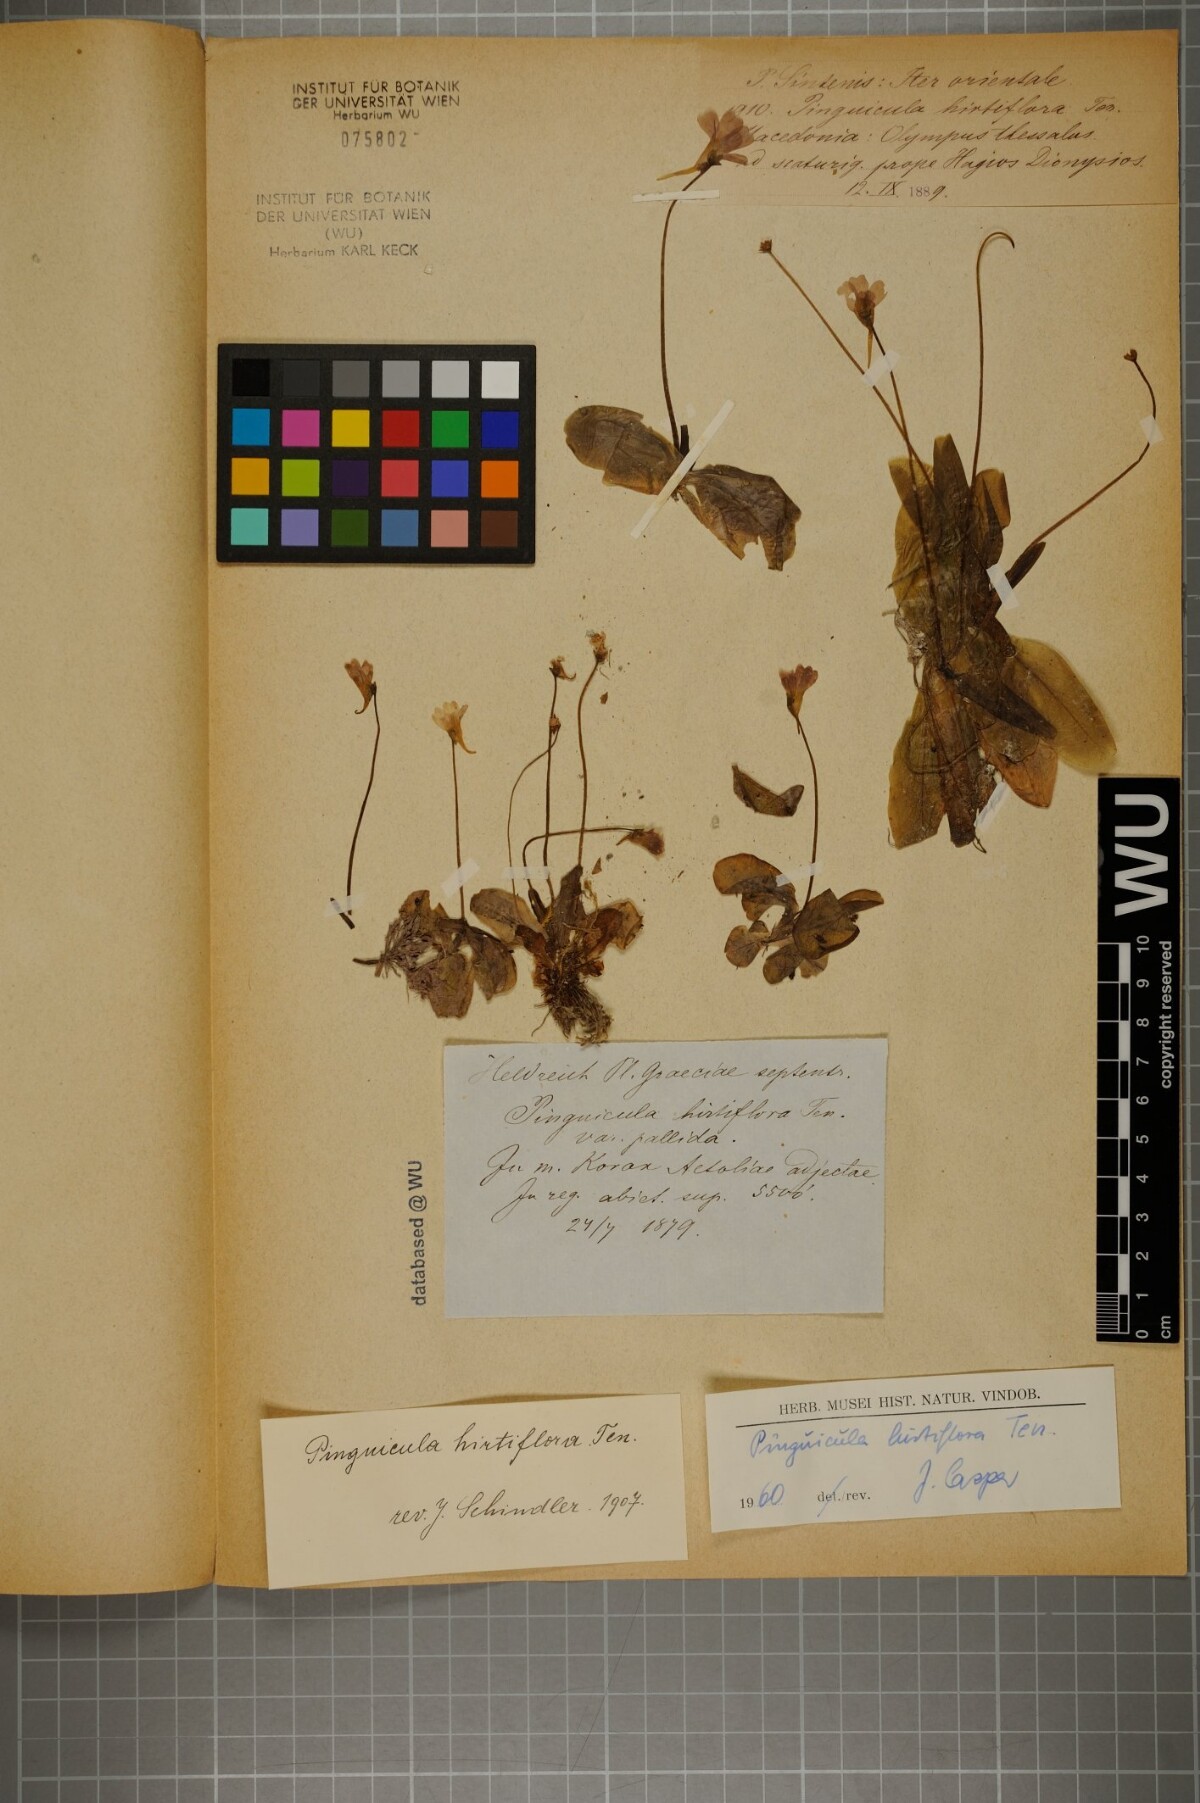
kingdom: Plantae
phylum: Tracheophyta
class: Magnoliopsida
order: Lamiales
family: Lentibulariaceae
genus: Pinguicula
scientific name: Pinguicula crystallina
